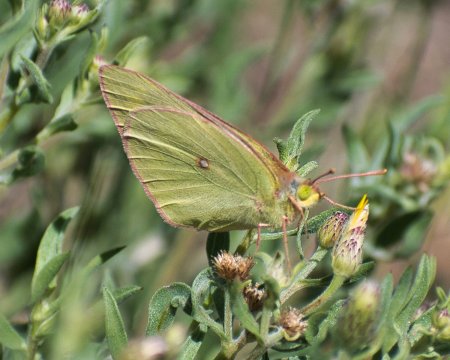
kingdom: Animalia
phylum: Arthropoda
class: Insecta
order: Lepidoptera
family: Pieridae
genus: Colias
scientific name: Colias meadii
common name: Mead's Sulphur
